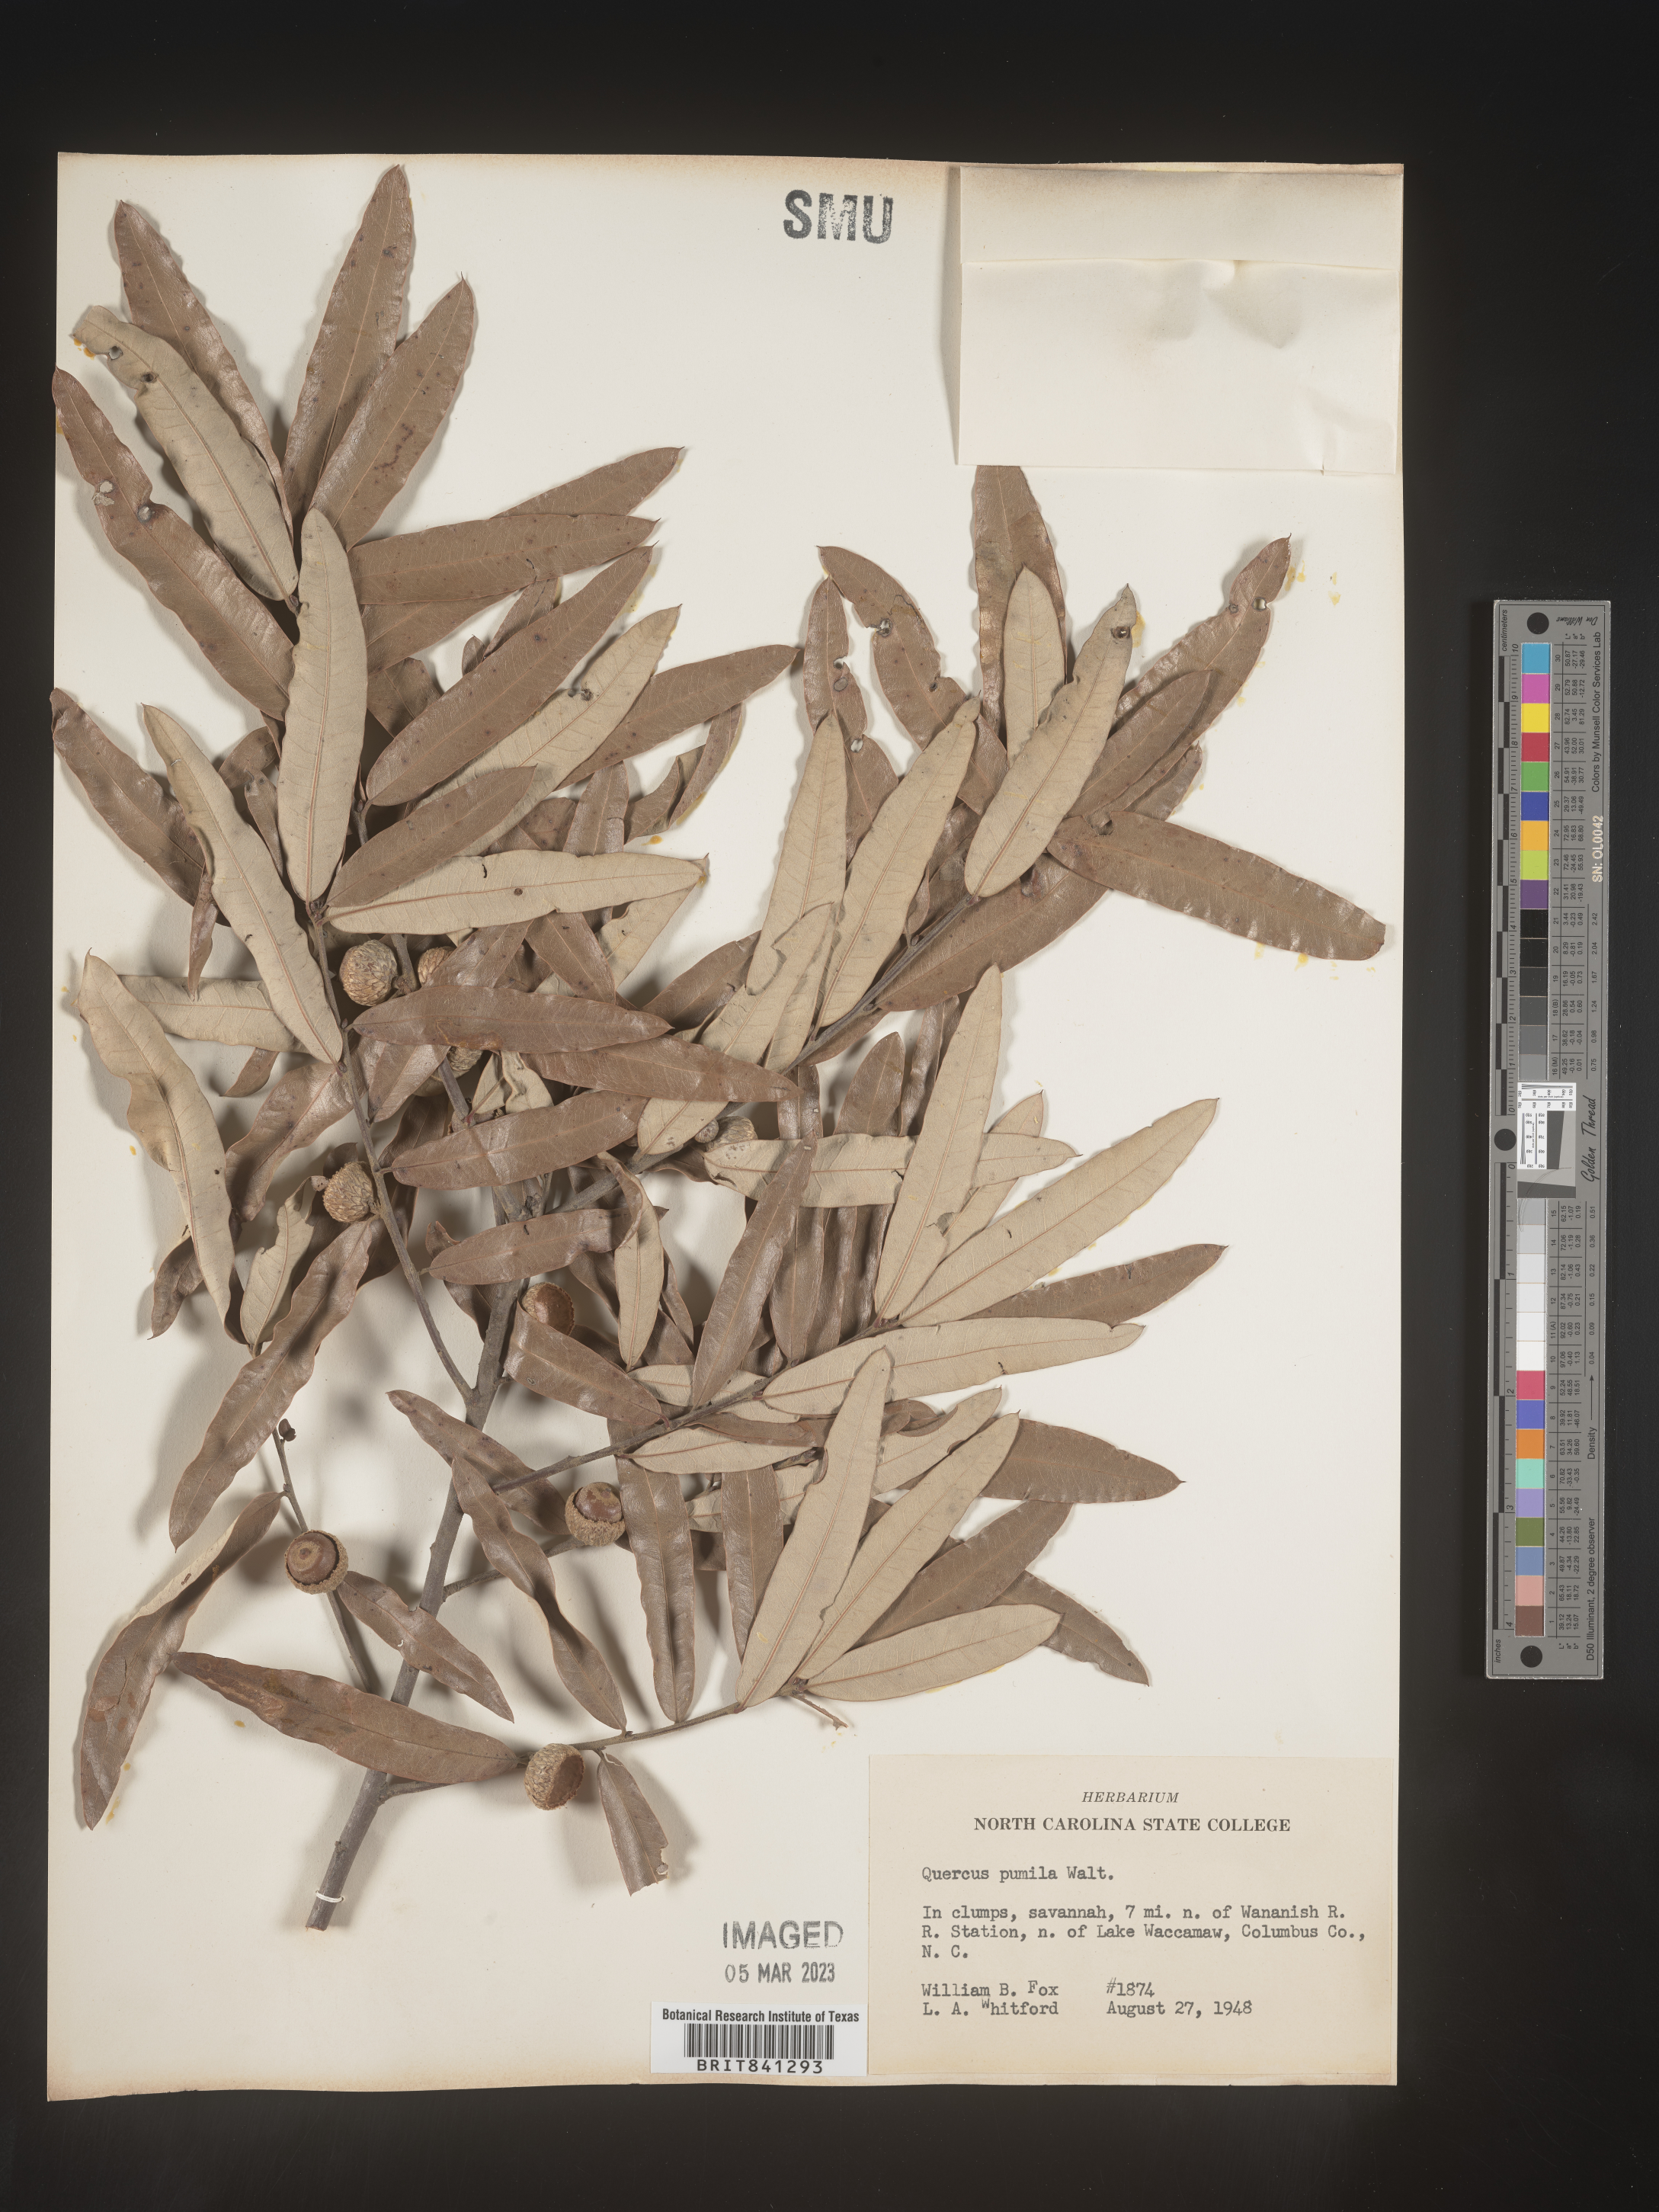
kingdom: Plantae
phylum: Tracheophyta
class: Magnoliopsida
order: Fagales
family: Fagaceae
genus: Quercus
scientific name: Quercus pumila
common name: Runner oak
